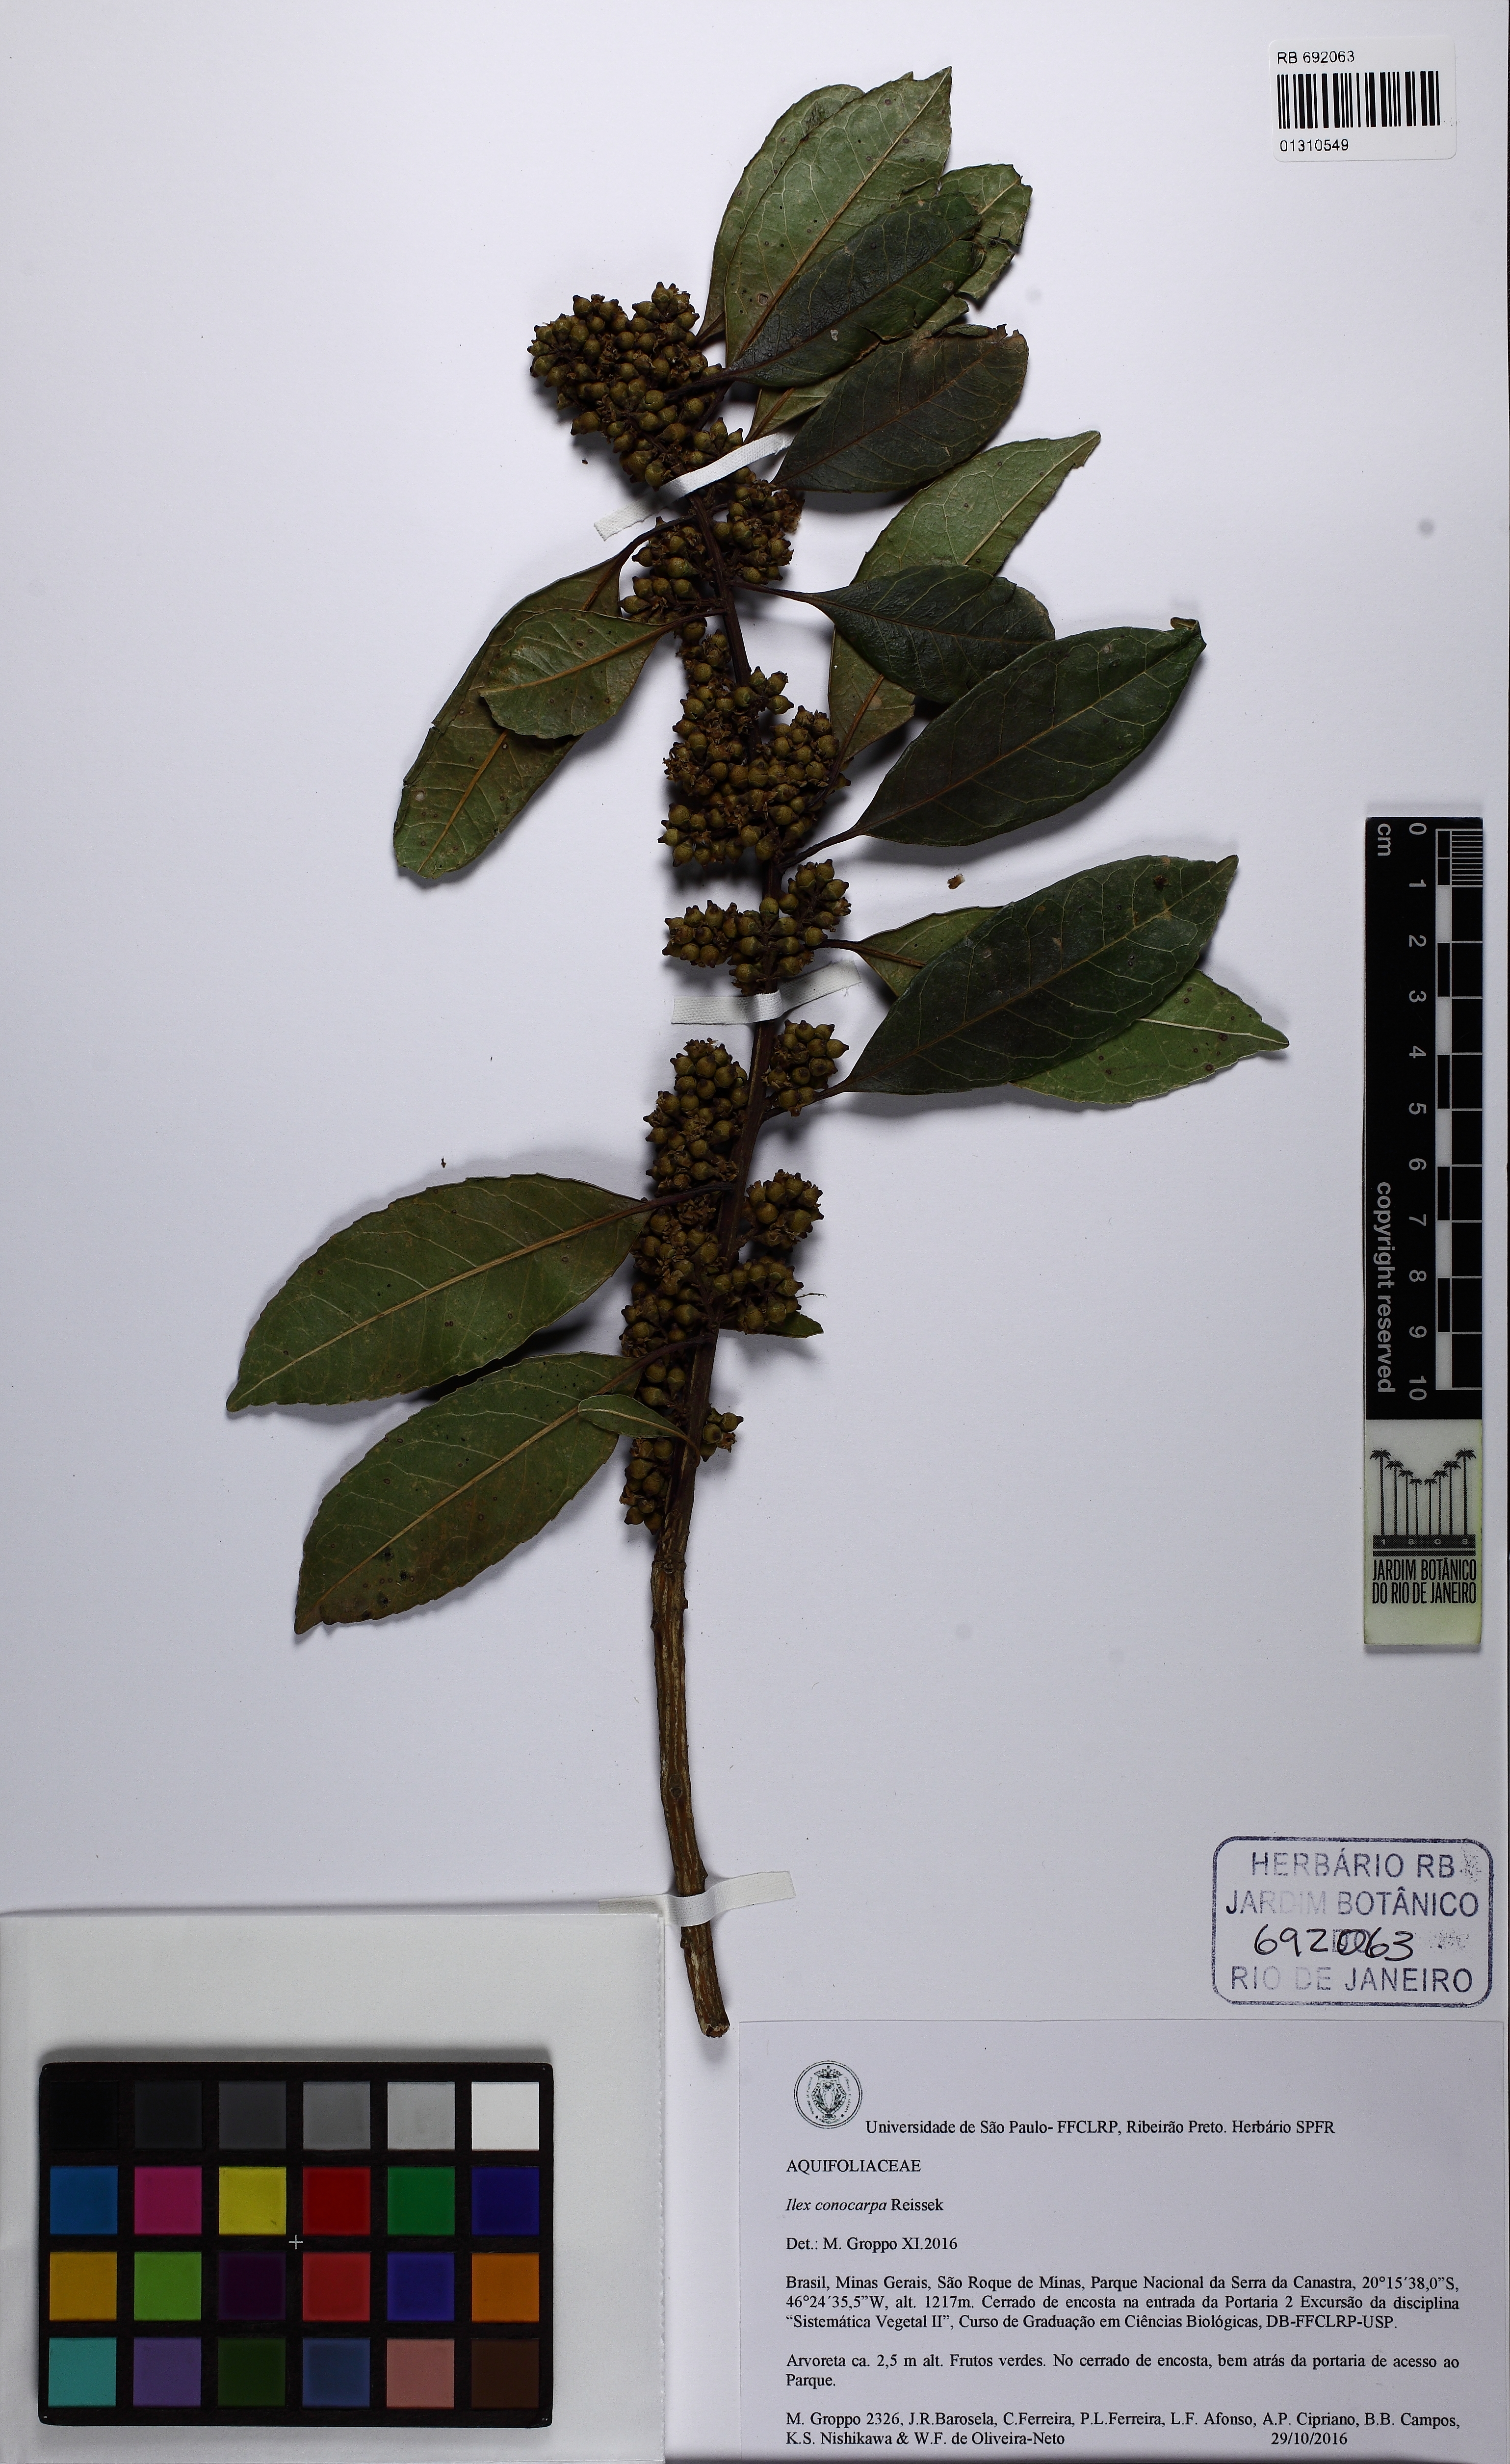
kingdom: Plantae
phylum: Tracheophyta
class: Magnoliopsida
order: Aquifoliales
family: Aquifoliaceae
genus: Ilex
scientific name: Ilex conocarpa
